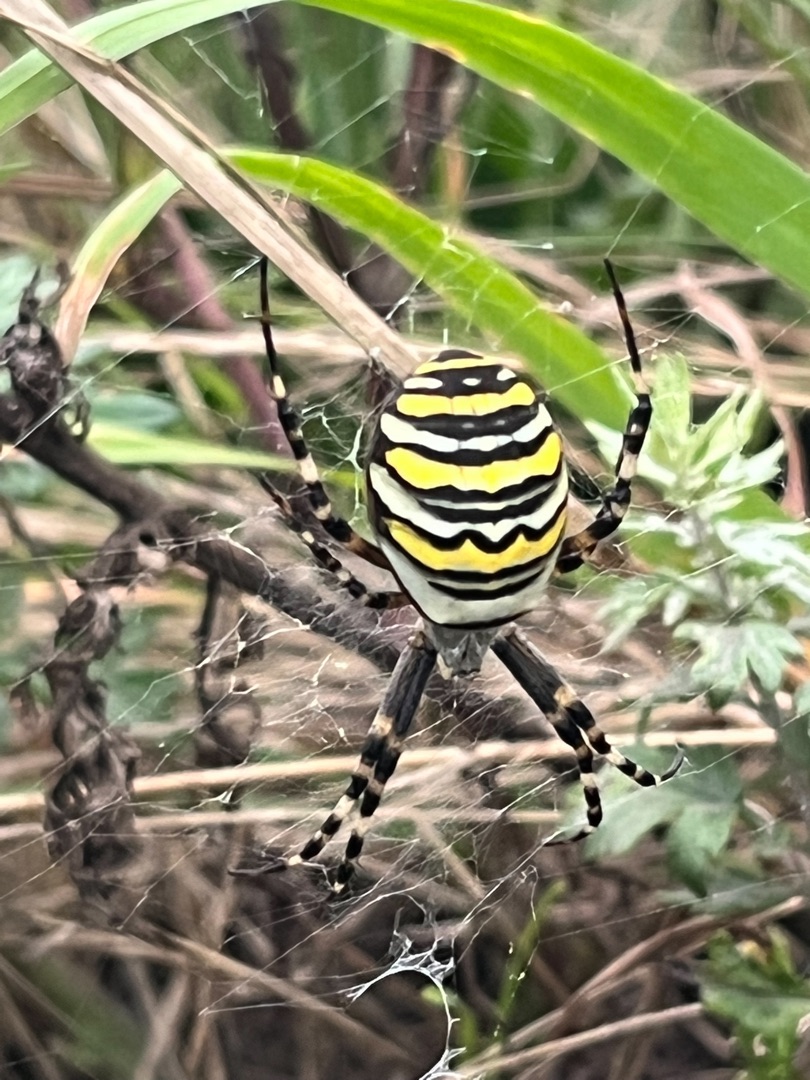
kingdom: Animalia
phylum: Arthropoda
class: Arachnida
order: Araneae
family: Araneidae
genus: Argiope
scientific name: Argiope bruennichi
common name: Hvepseedderkop
